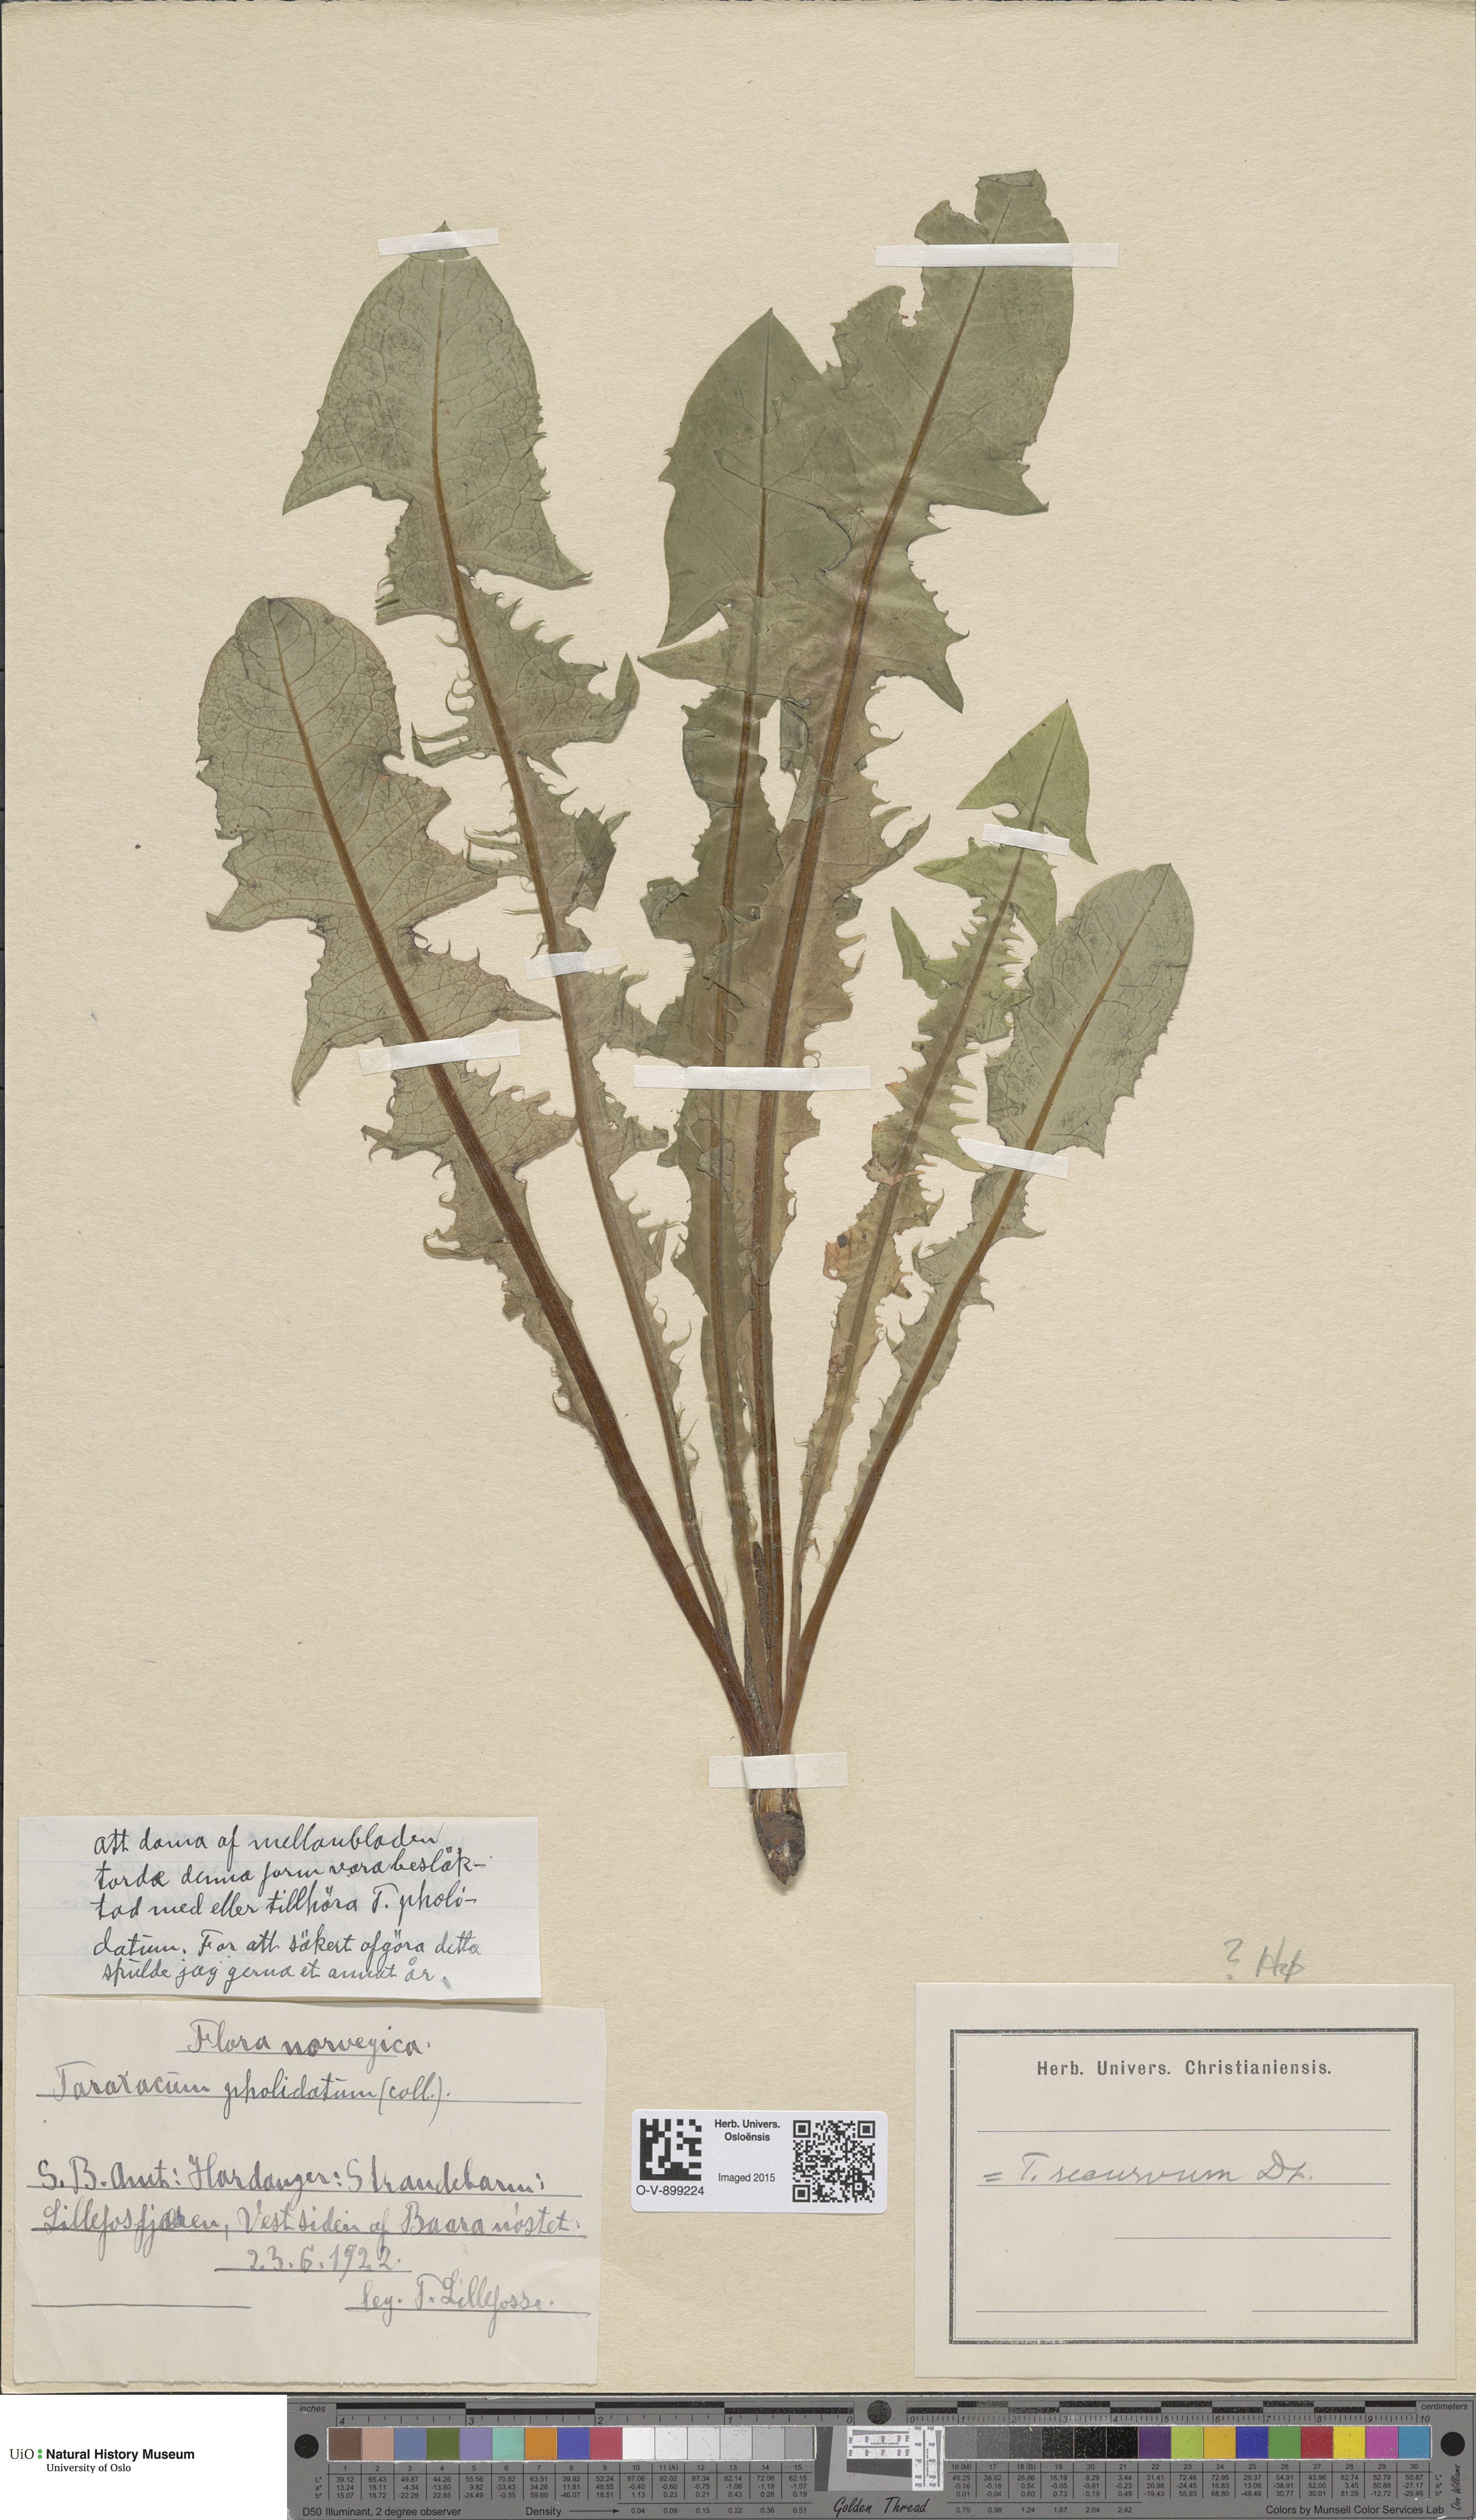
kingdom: Plantae
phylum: Tracheophyta
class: Magnoliopsida
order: Asterales
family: Asteraceae
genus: Taraxacum
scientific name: Taraxacum recurvum
